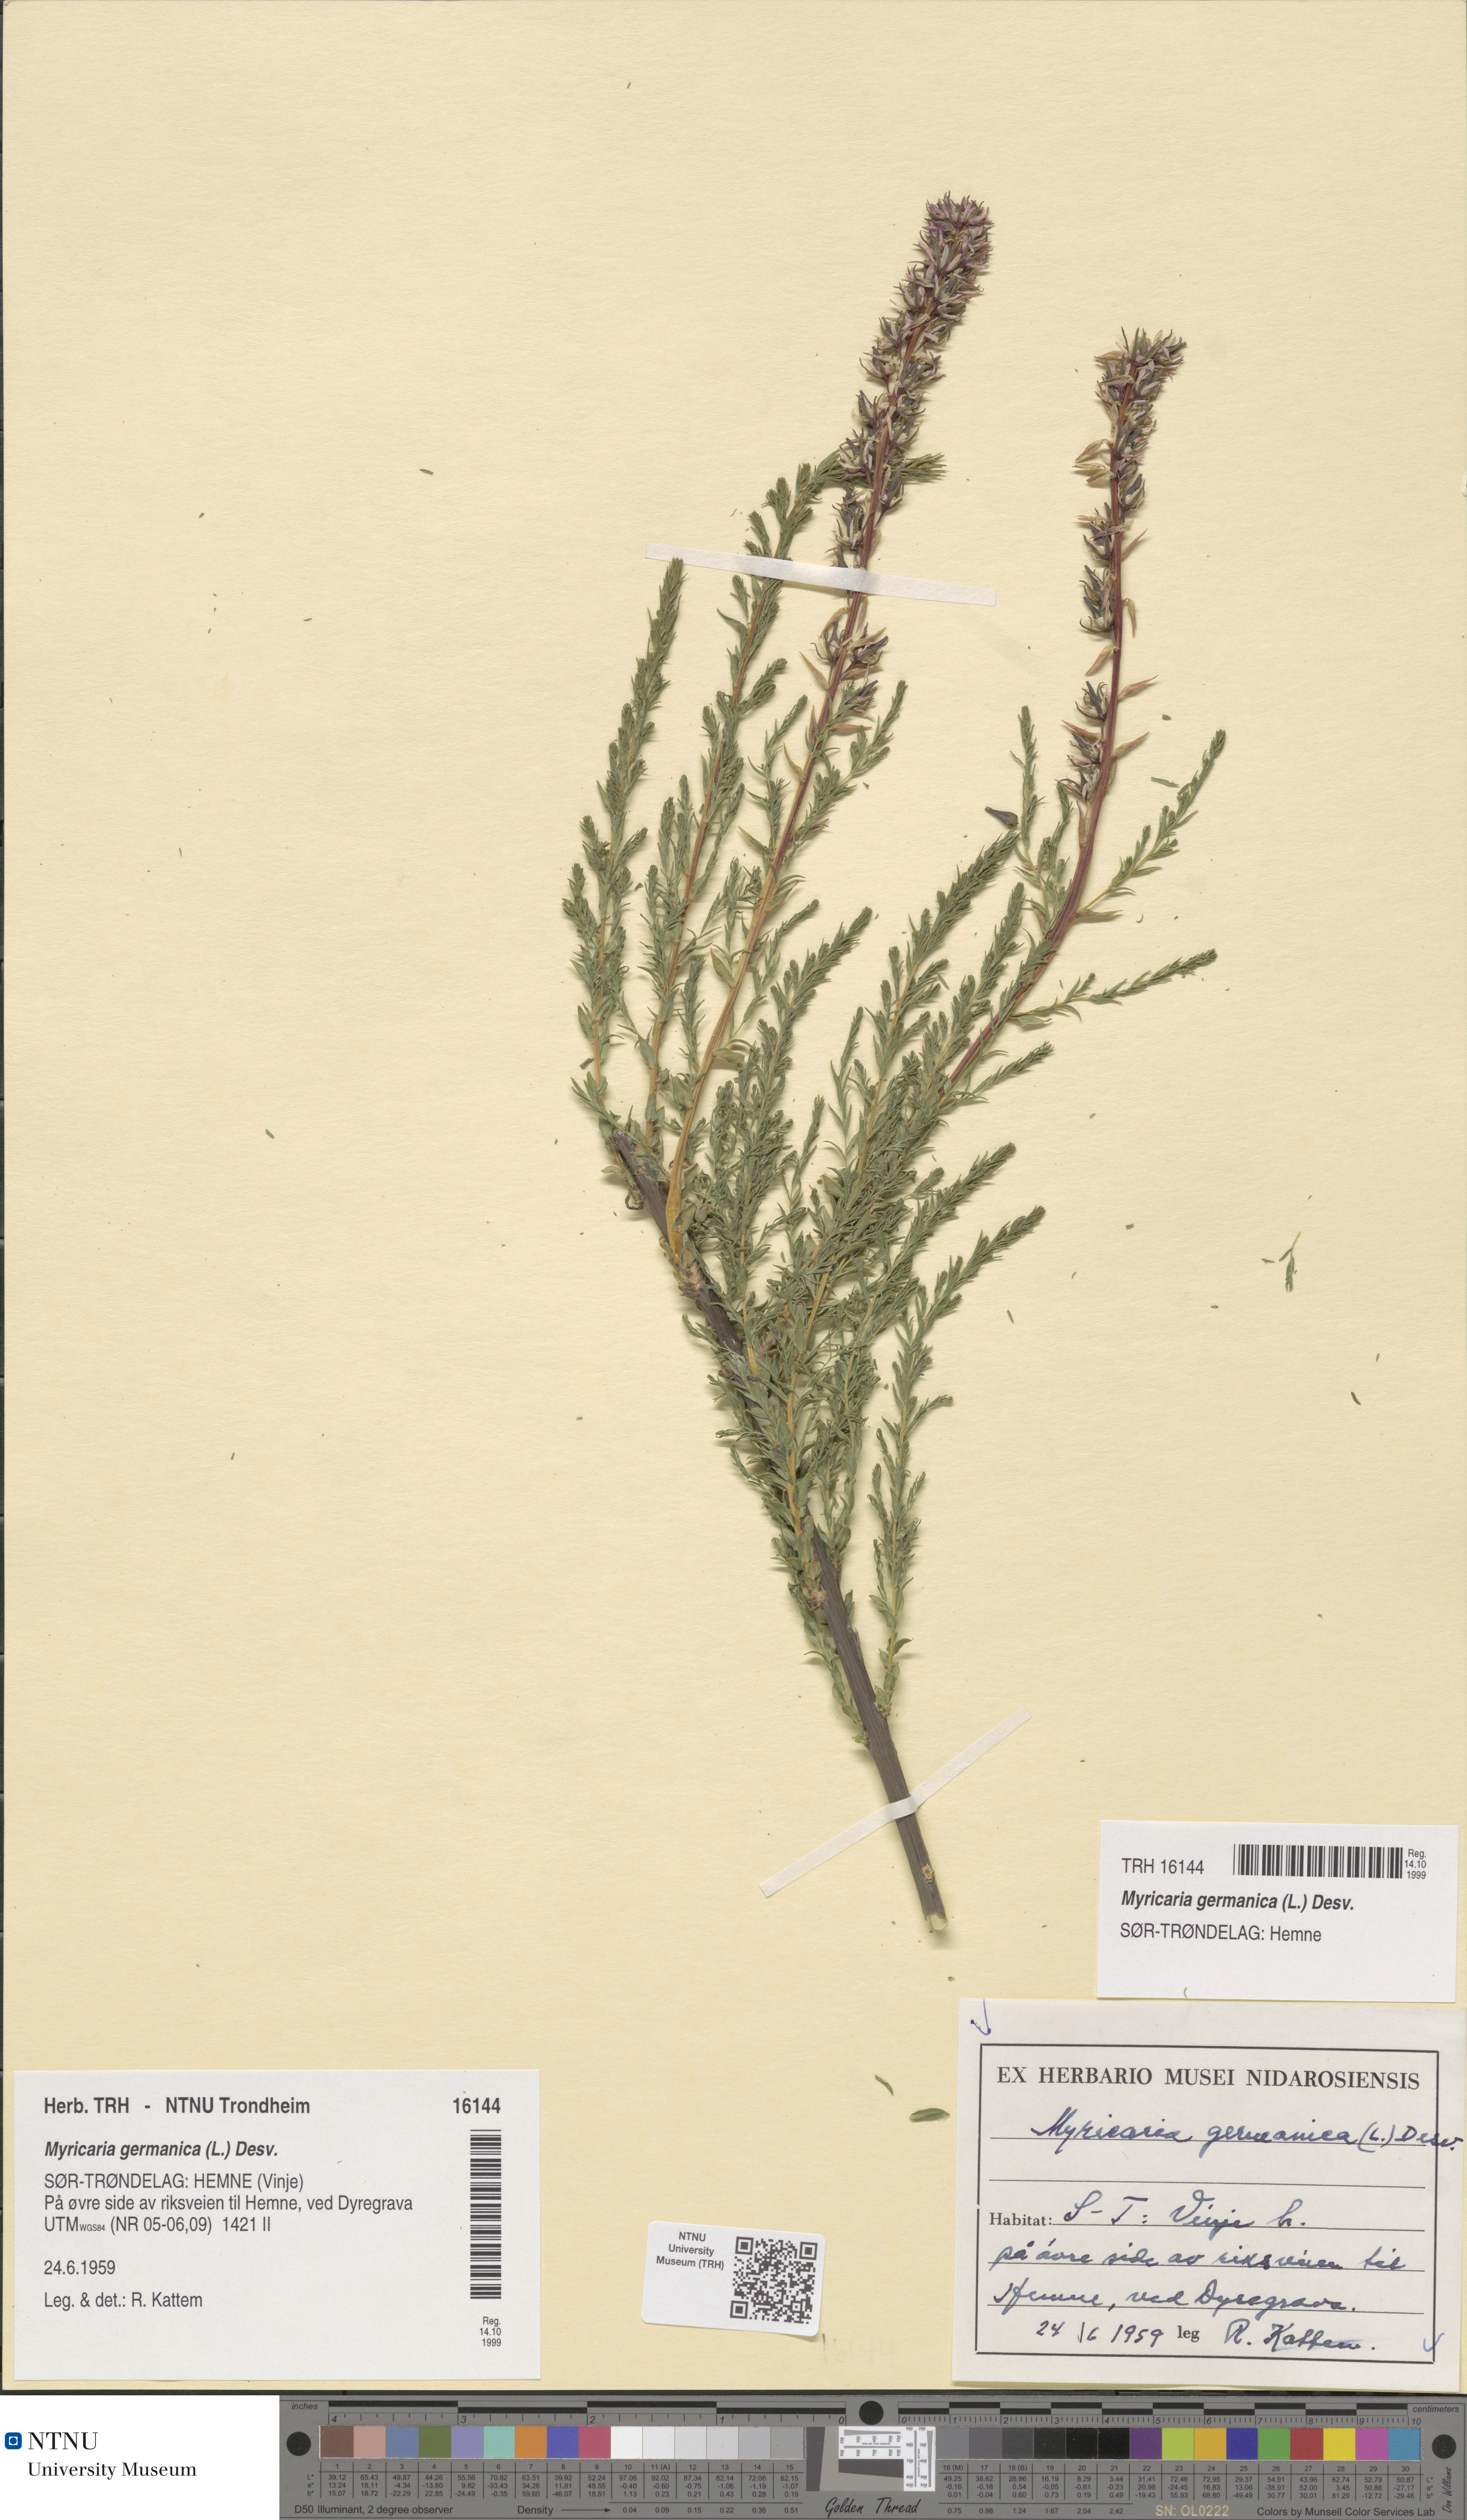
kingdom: Plantae
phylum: Tracheophyta
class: Magnoliopsida
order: Caryophyllales
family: Tamaricaceae
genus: Myricaria
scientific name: Myricaria germanica
